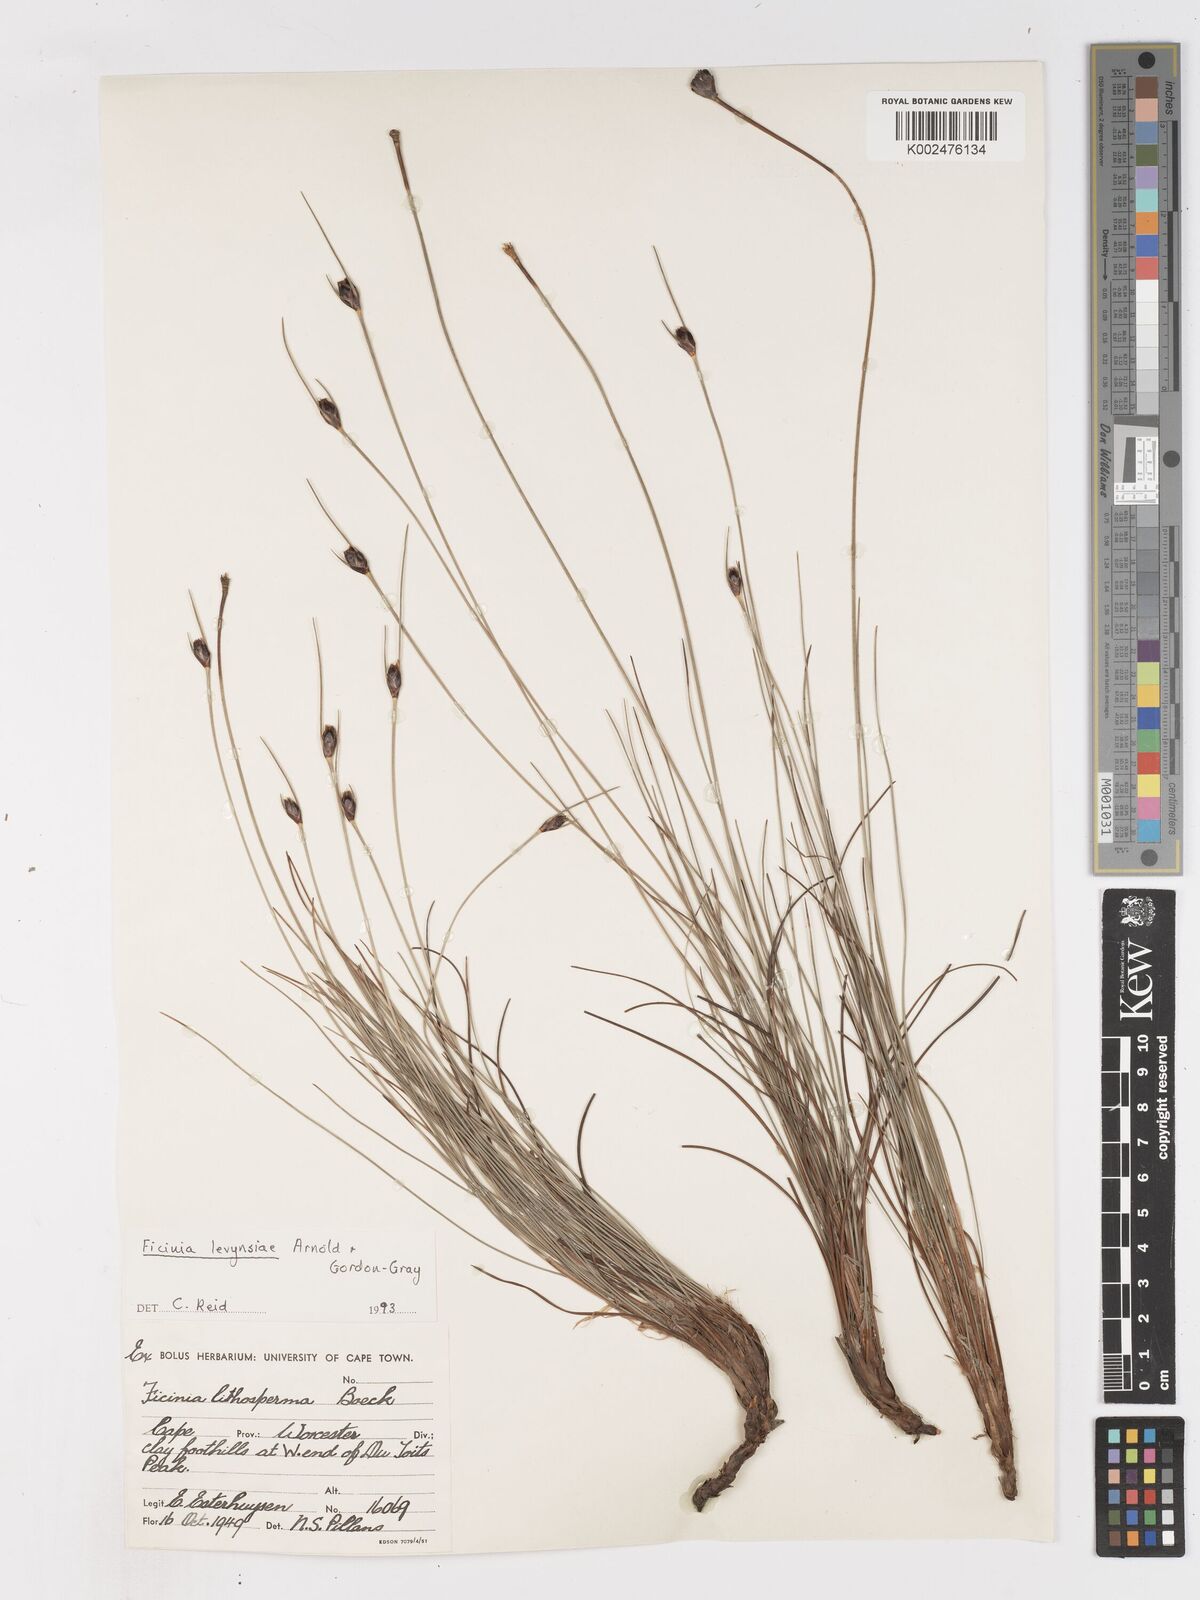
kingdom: Plantae
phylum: Tracheophyta
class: Liliopsida
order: Poales
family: Cyperaceae
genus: Ficinia
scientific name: Ficinia levynsiae
